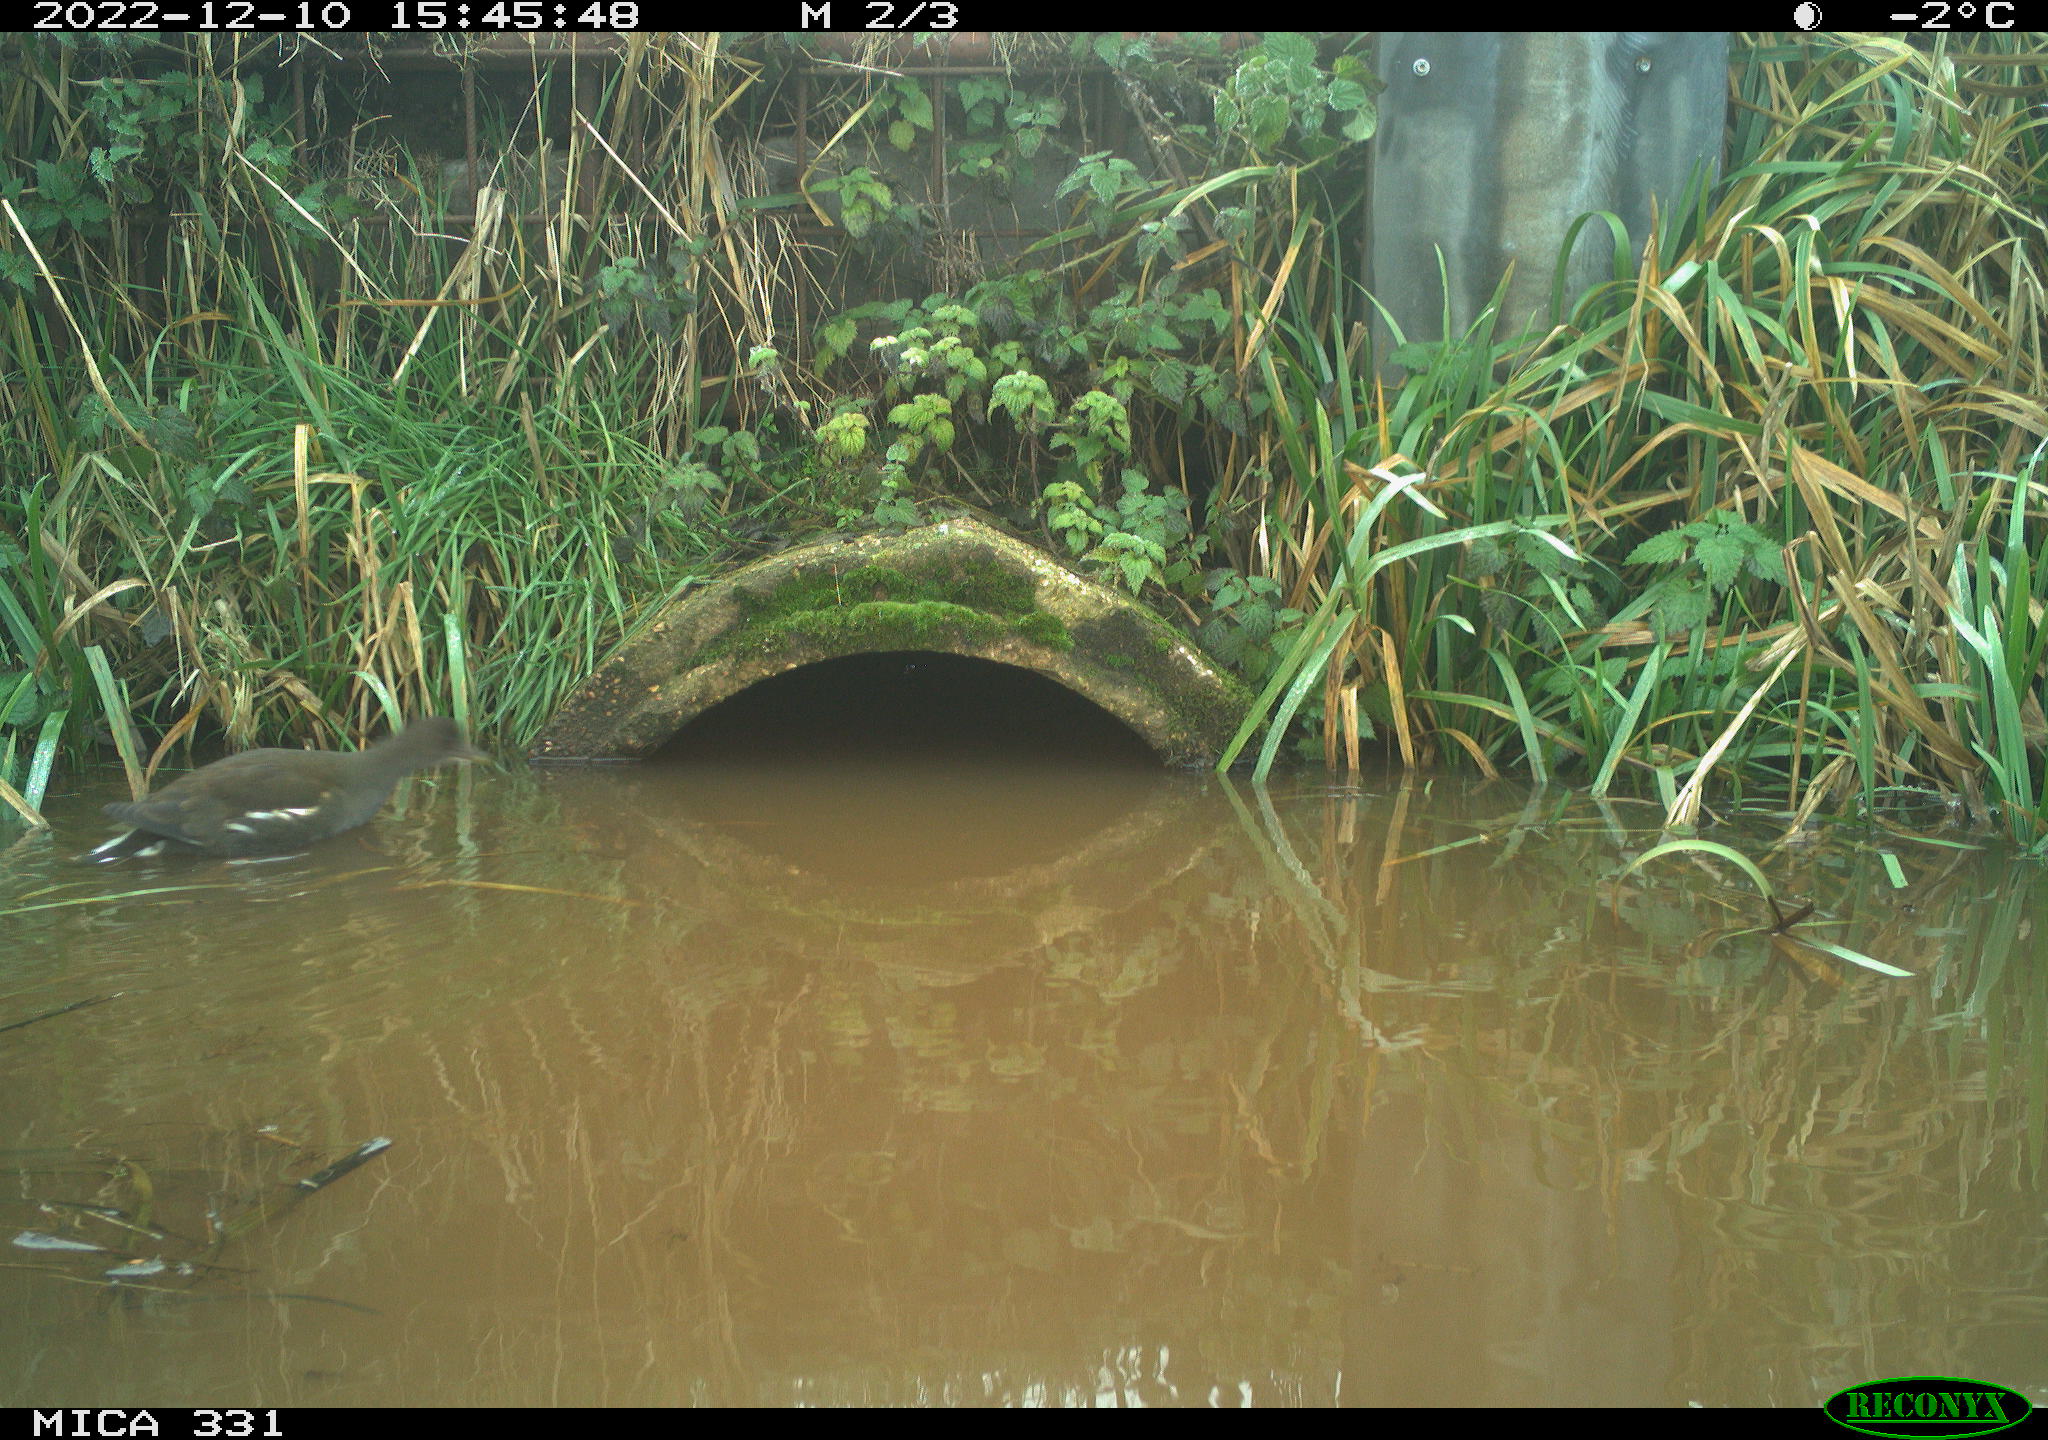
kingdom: Animalia
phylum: Chordata
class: Aves
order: Gruiformes
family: Rallidae
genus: Gallinula
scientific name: Gallinula chloropus
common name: Common moorhen
